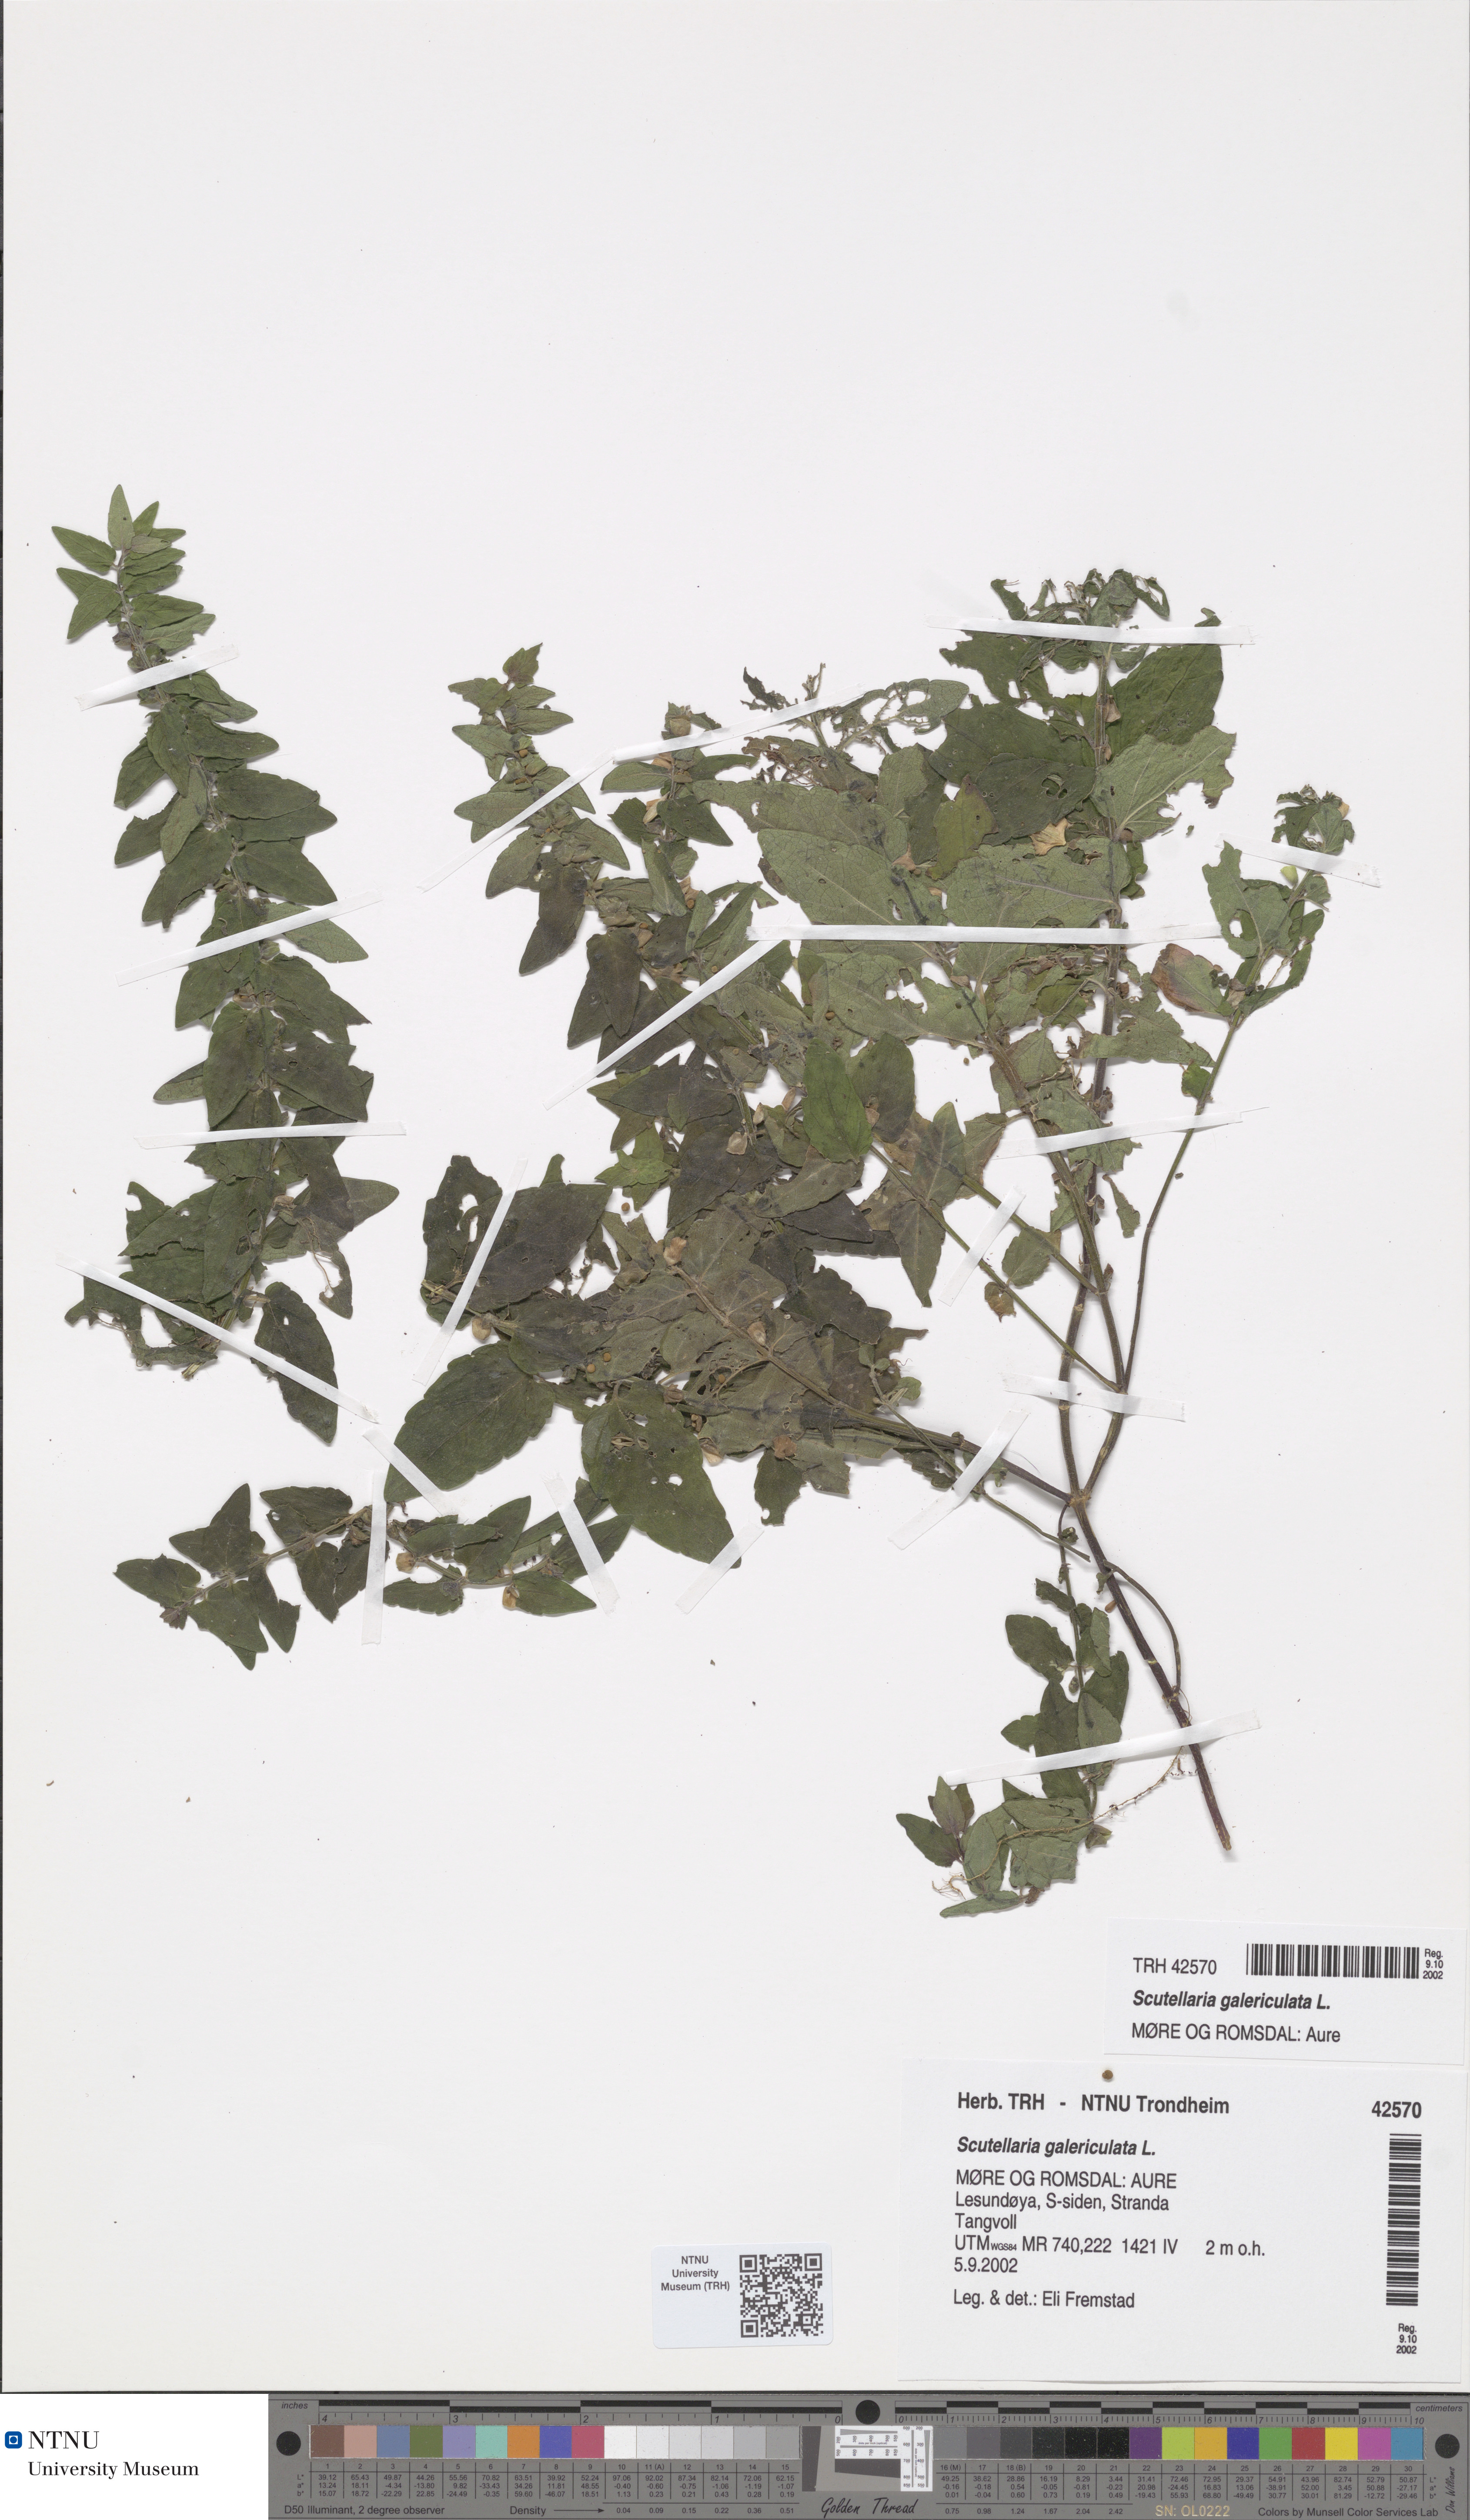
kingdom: Plantae
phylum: Tracheophyta
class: Magnoliopsida
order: Lamiales
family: Lamiaceae
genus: Scutellaria
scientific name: Scutellaria galericulata
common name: Skullcap
